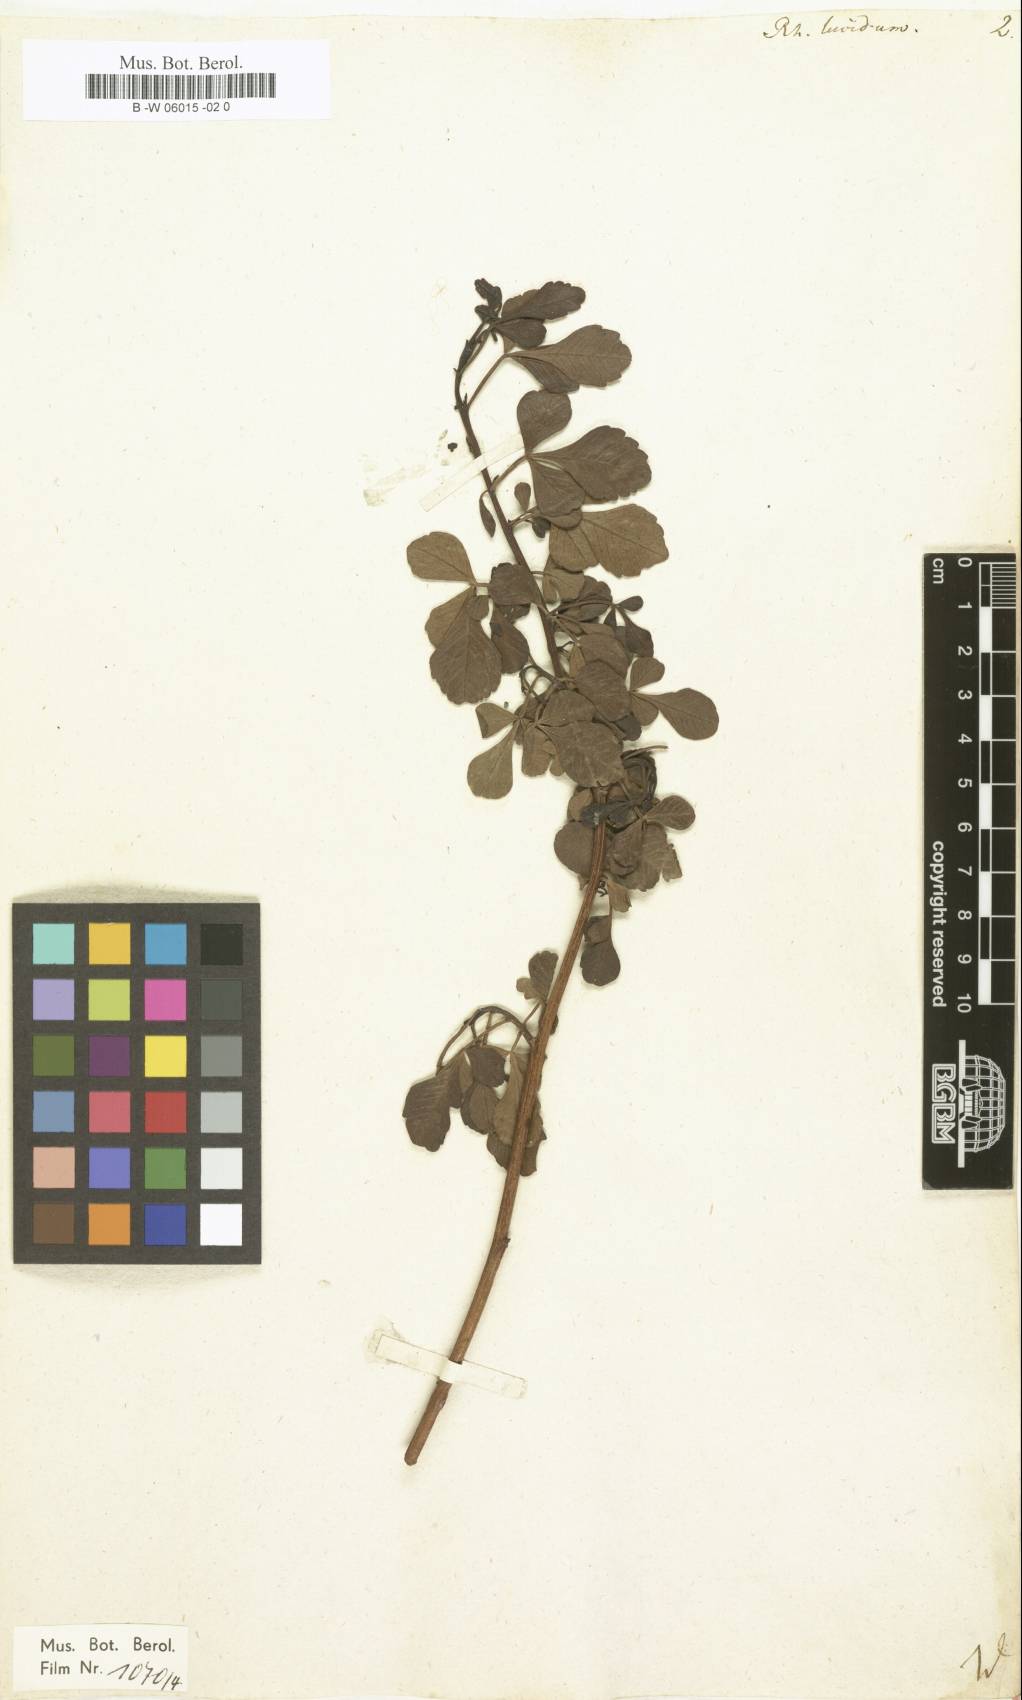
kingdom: Plantae
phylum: Tracheophyta
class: Magnoliopsida
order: Sapindales
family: Anacardiaceae
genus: Searsia
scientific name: Searsia
